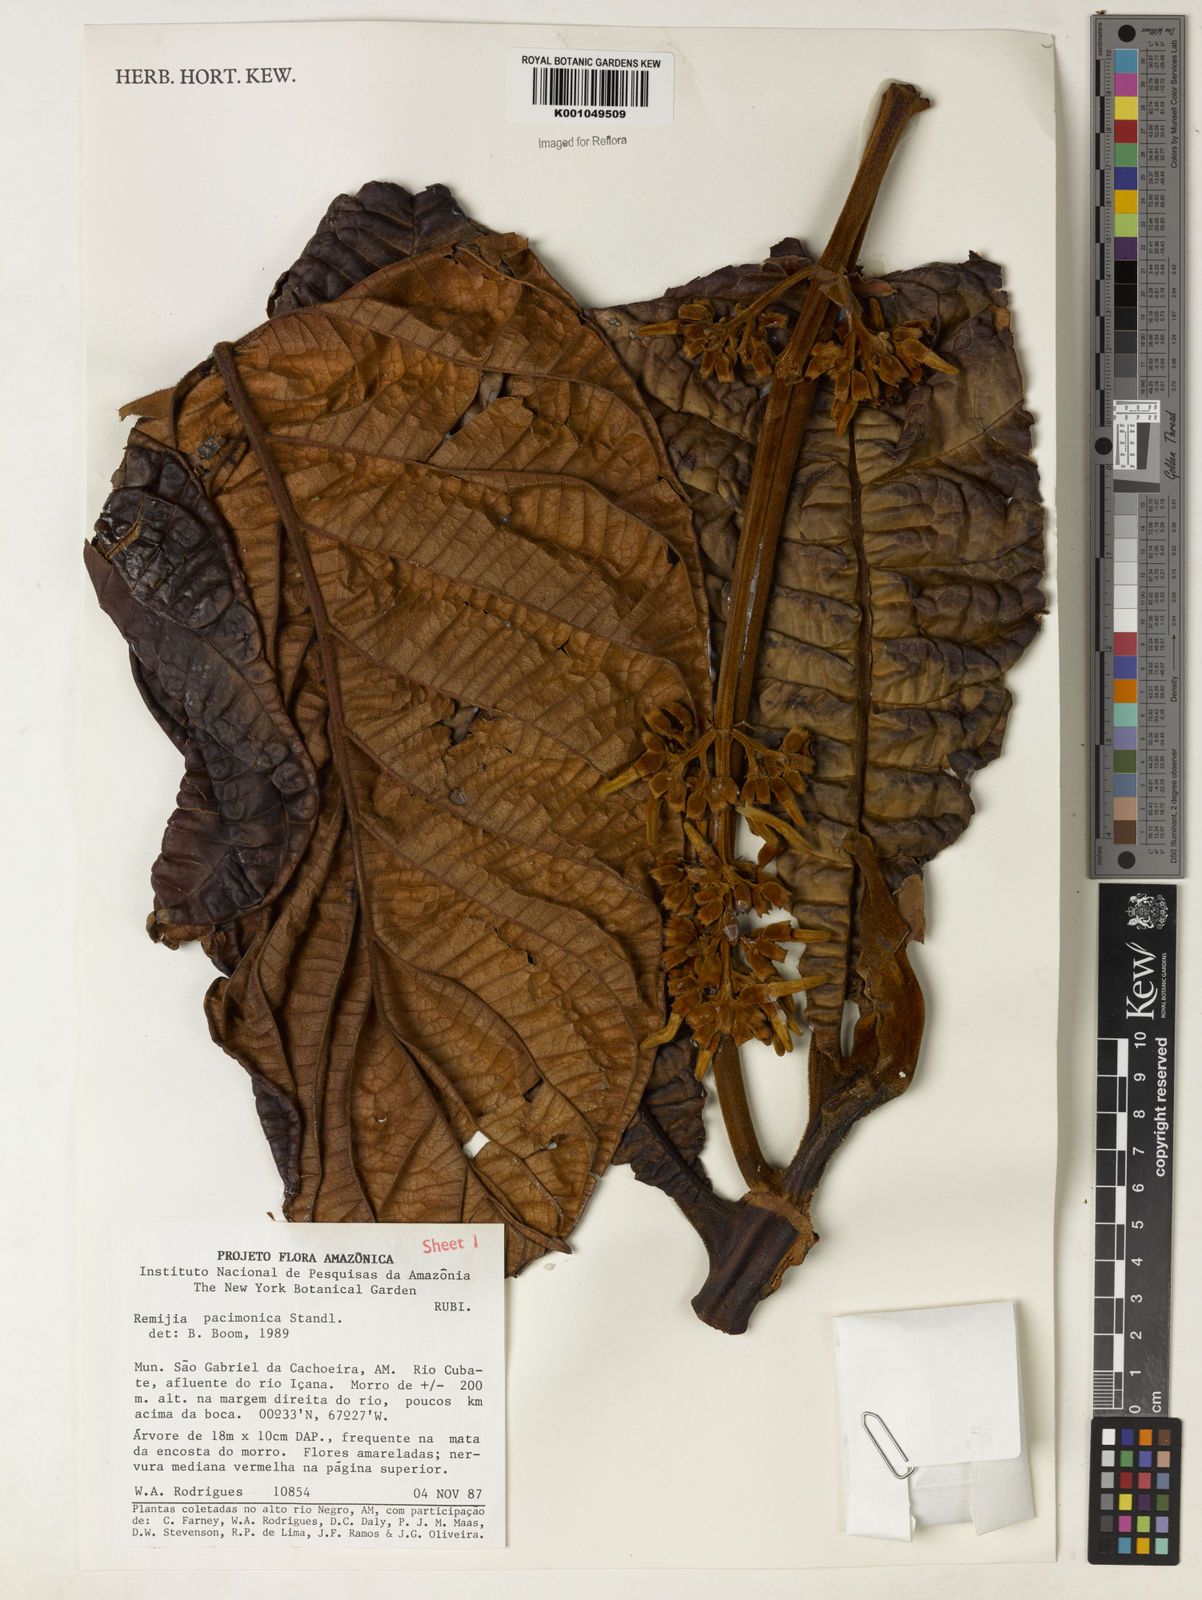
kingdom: Plantae
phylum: Tracheophyta
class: Magnoliopsida
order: Gentianales
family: Rubiaceae
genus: Remijia
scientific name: Remijia lacunosa
